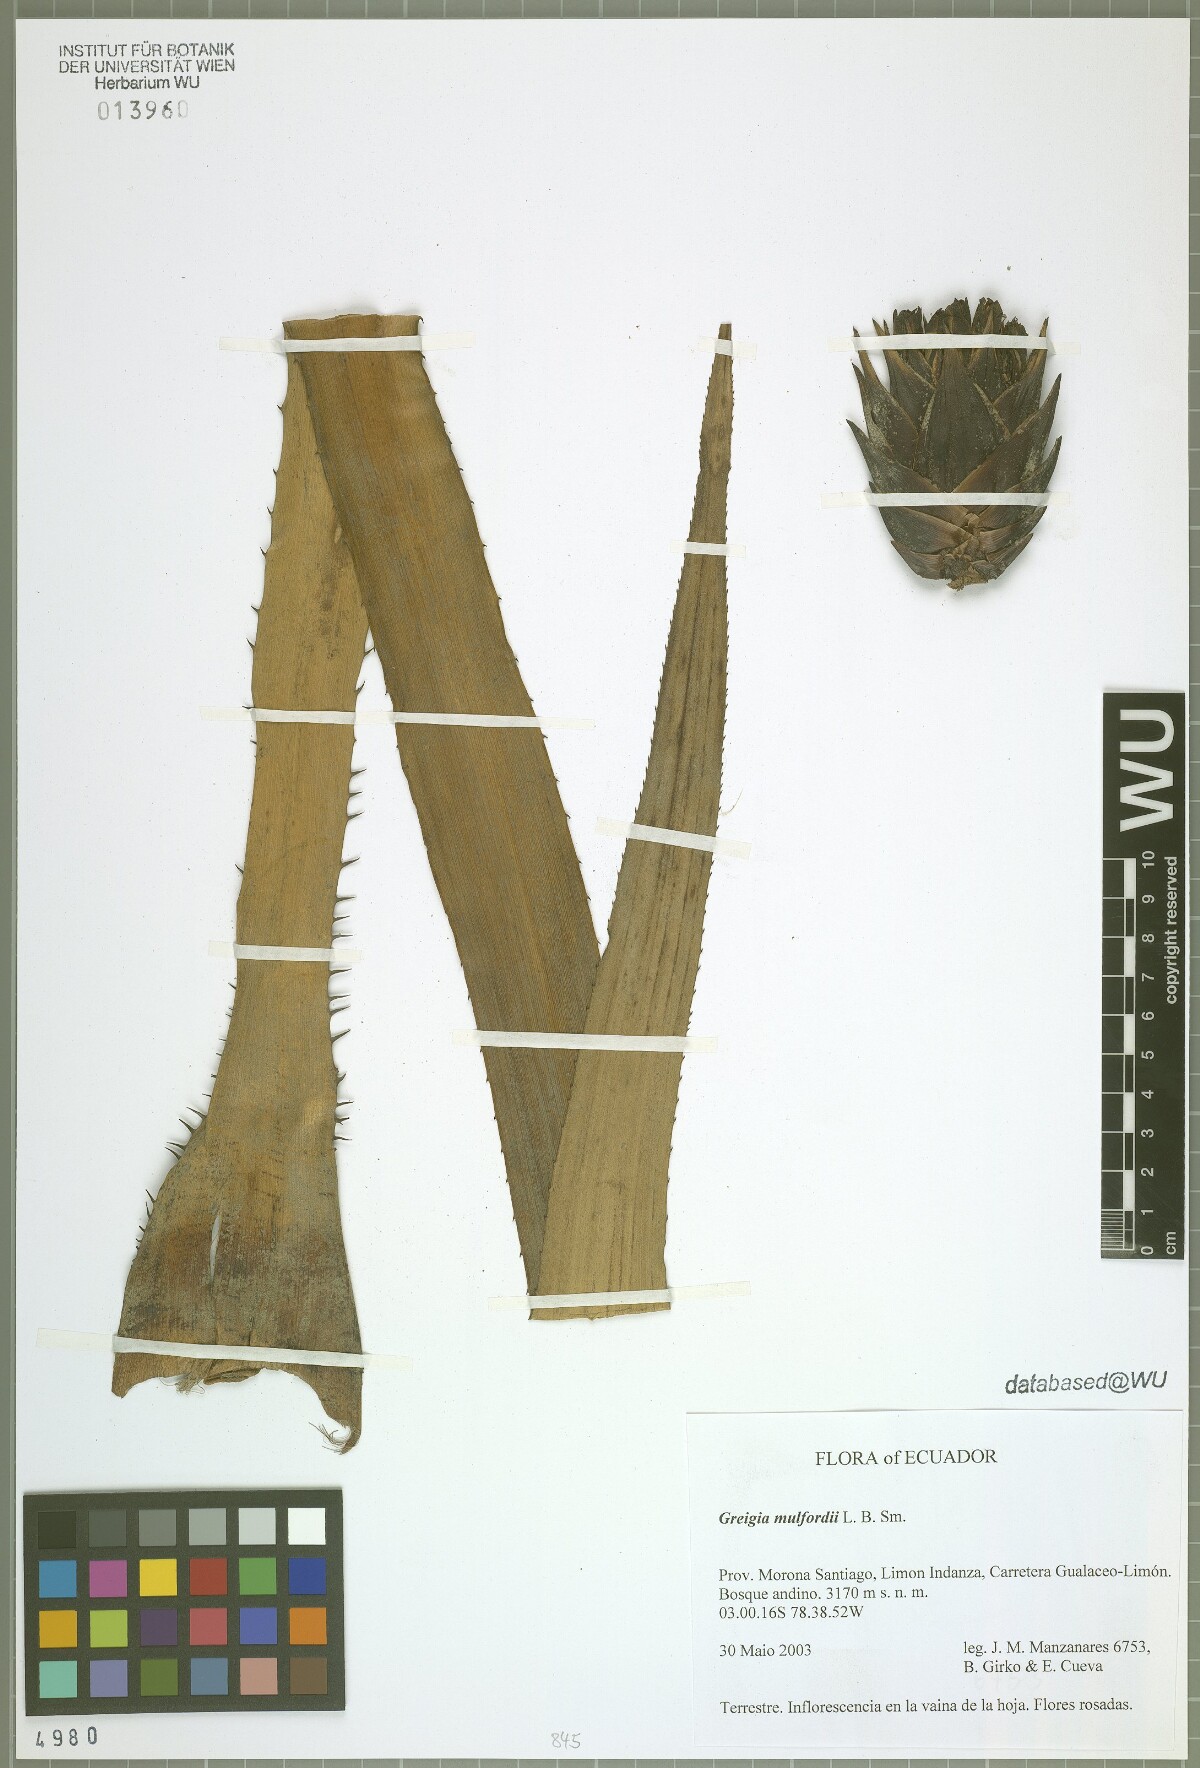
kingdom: Plantae
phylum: Tracheophyta
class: Liliopsida
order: Poales
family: Bromeliaceae
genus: Greigia
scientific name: Greigia mulfordii
